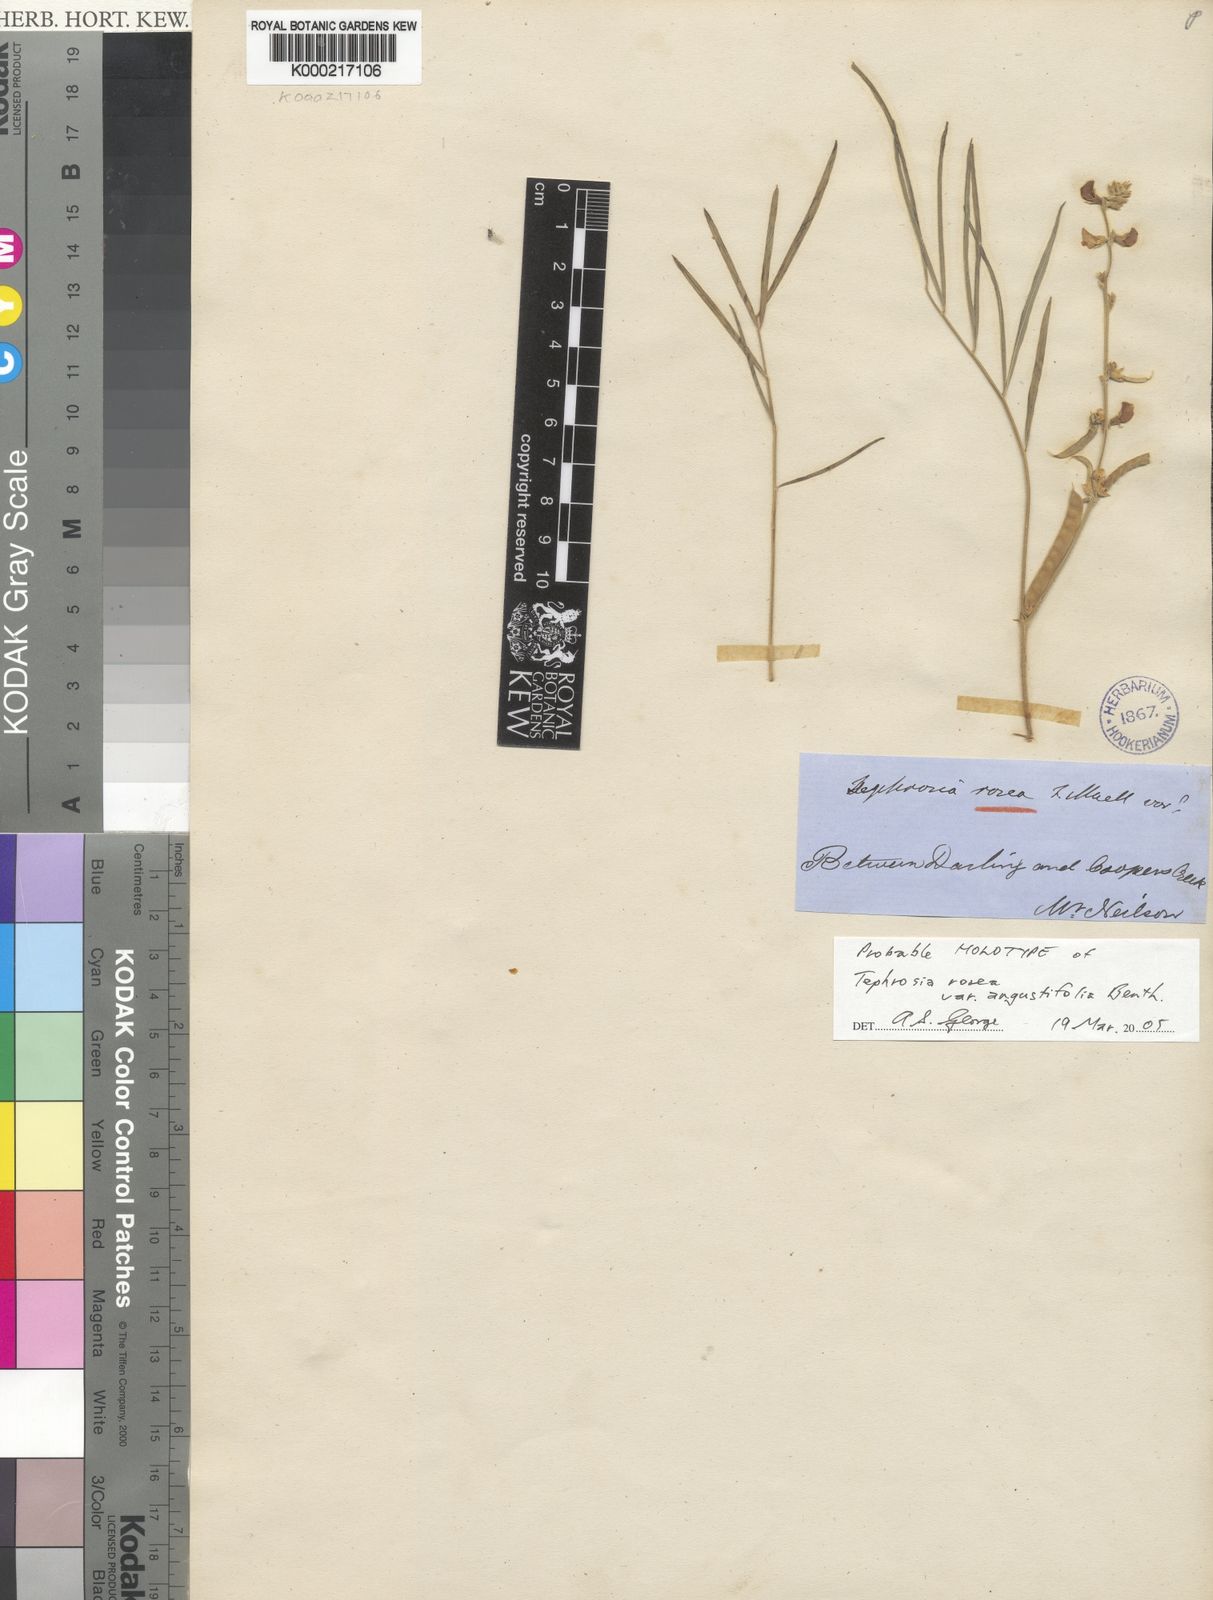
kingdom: Plantae
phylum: Tracheophyta
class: Magnoliopsida
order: Fabales
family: Fabaceae
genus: Tephrosia
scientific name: Tephrosia benthamii
